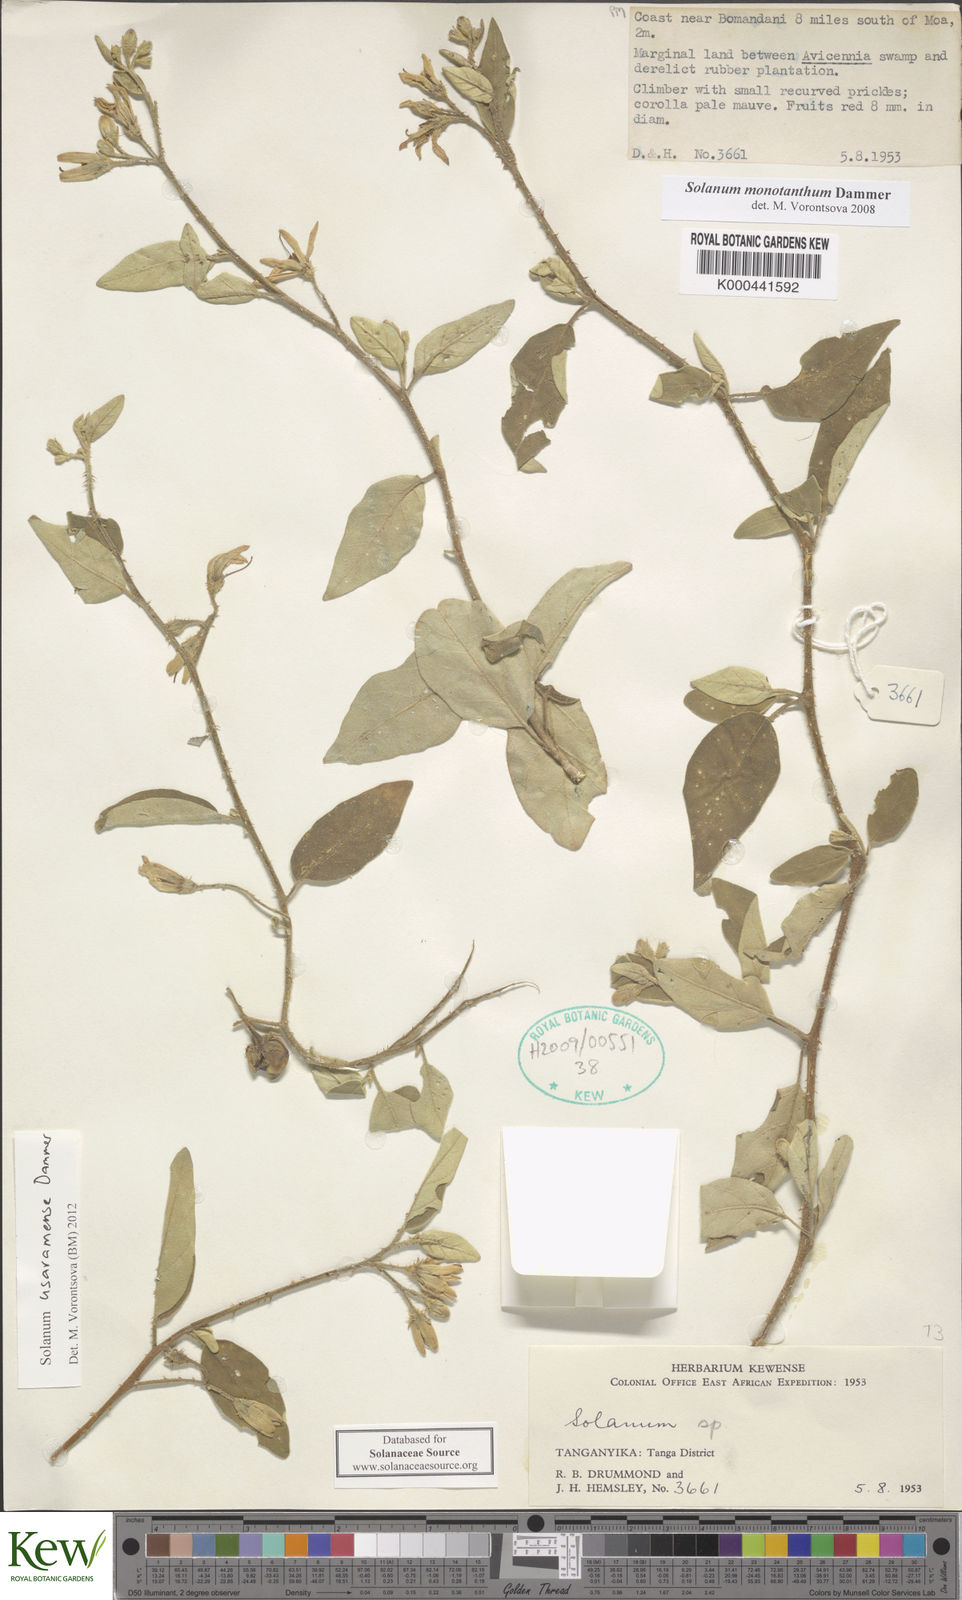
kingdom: Plantae
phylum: Tracheophyta
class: Magnoliopsida
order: Solanales
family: Solanaceae
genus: Solanum
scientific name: Solanum usaramense
